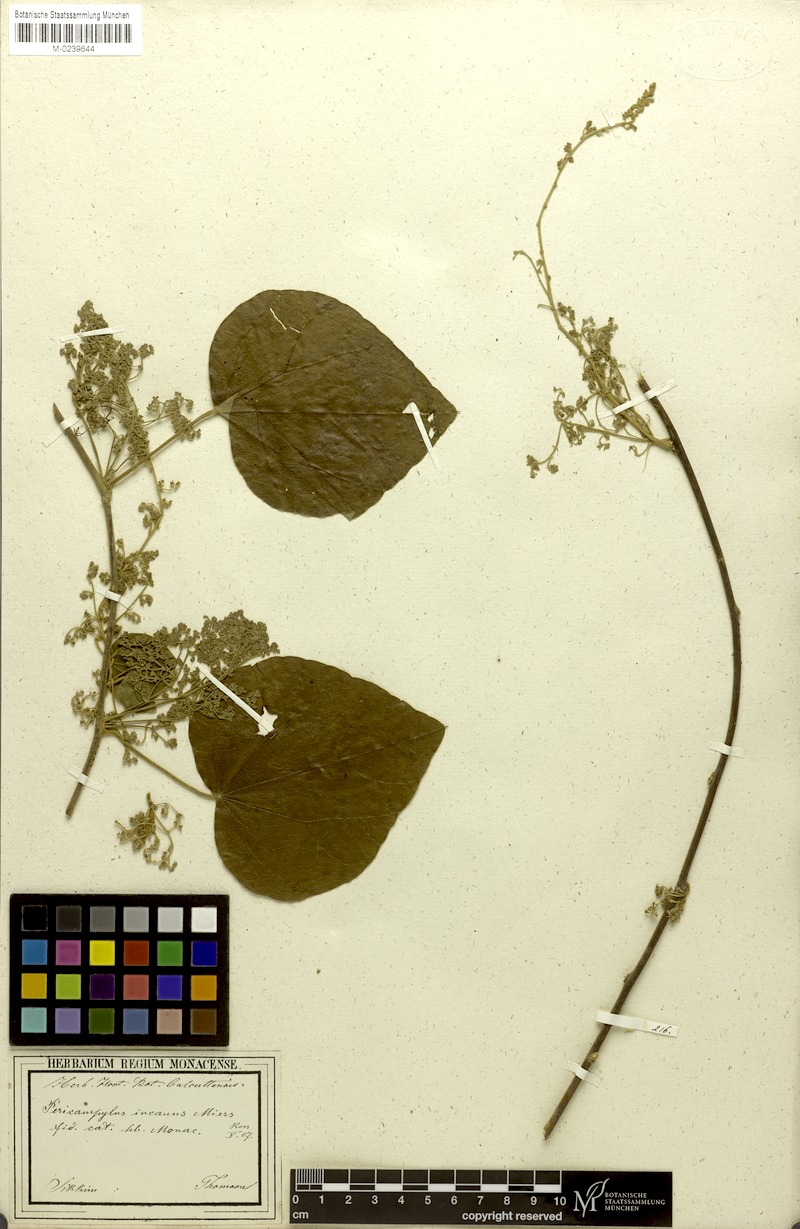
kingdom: Plantae
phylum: Tracheophyta
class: Magnoliopsida
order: Ranunculales
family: Menispermaceae
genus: Pericampylus
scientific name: Pericampylus glaucus
